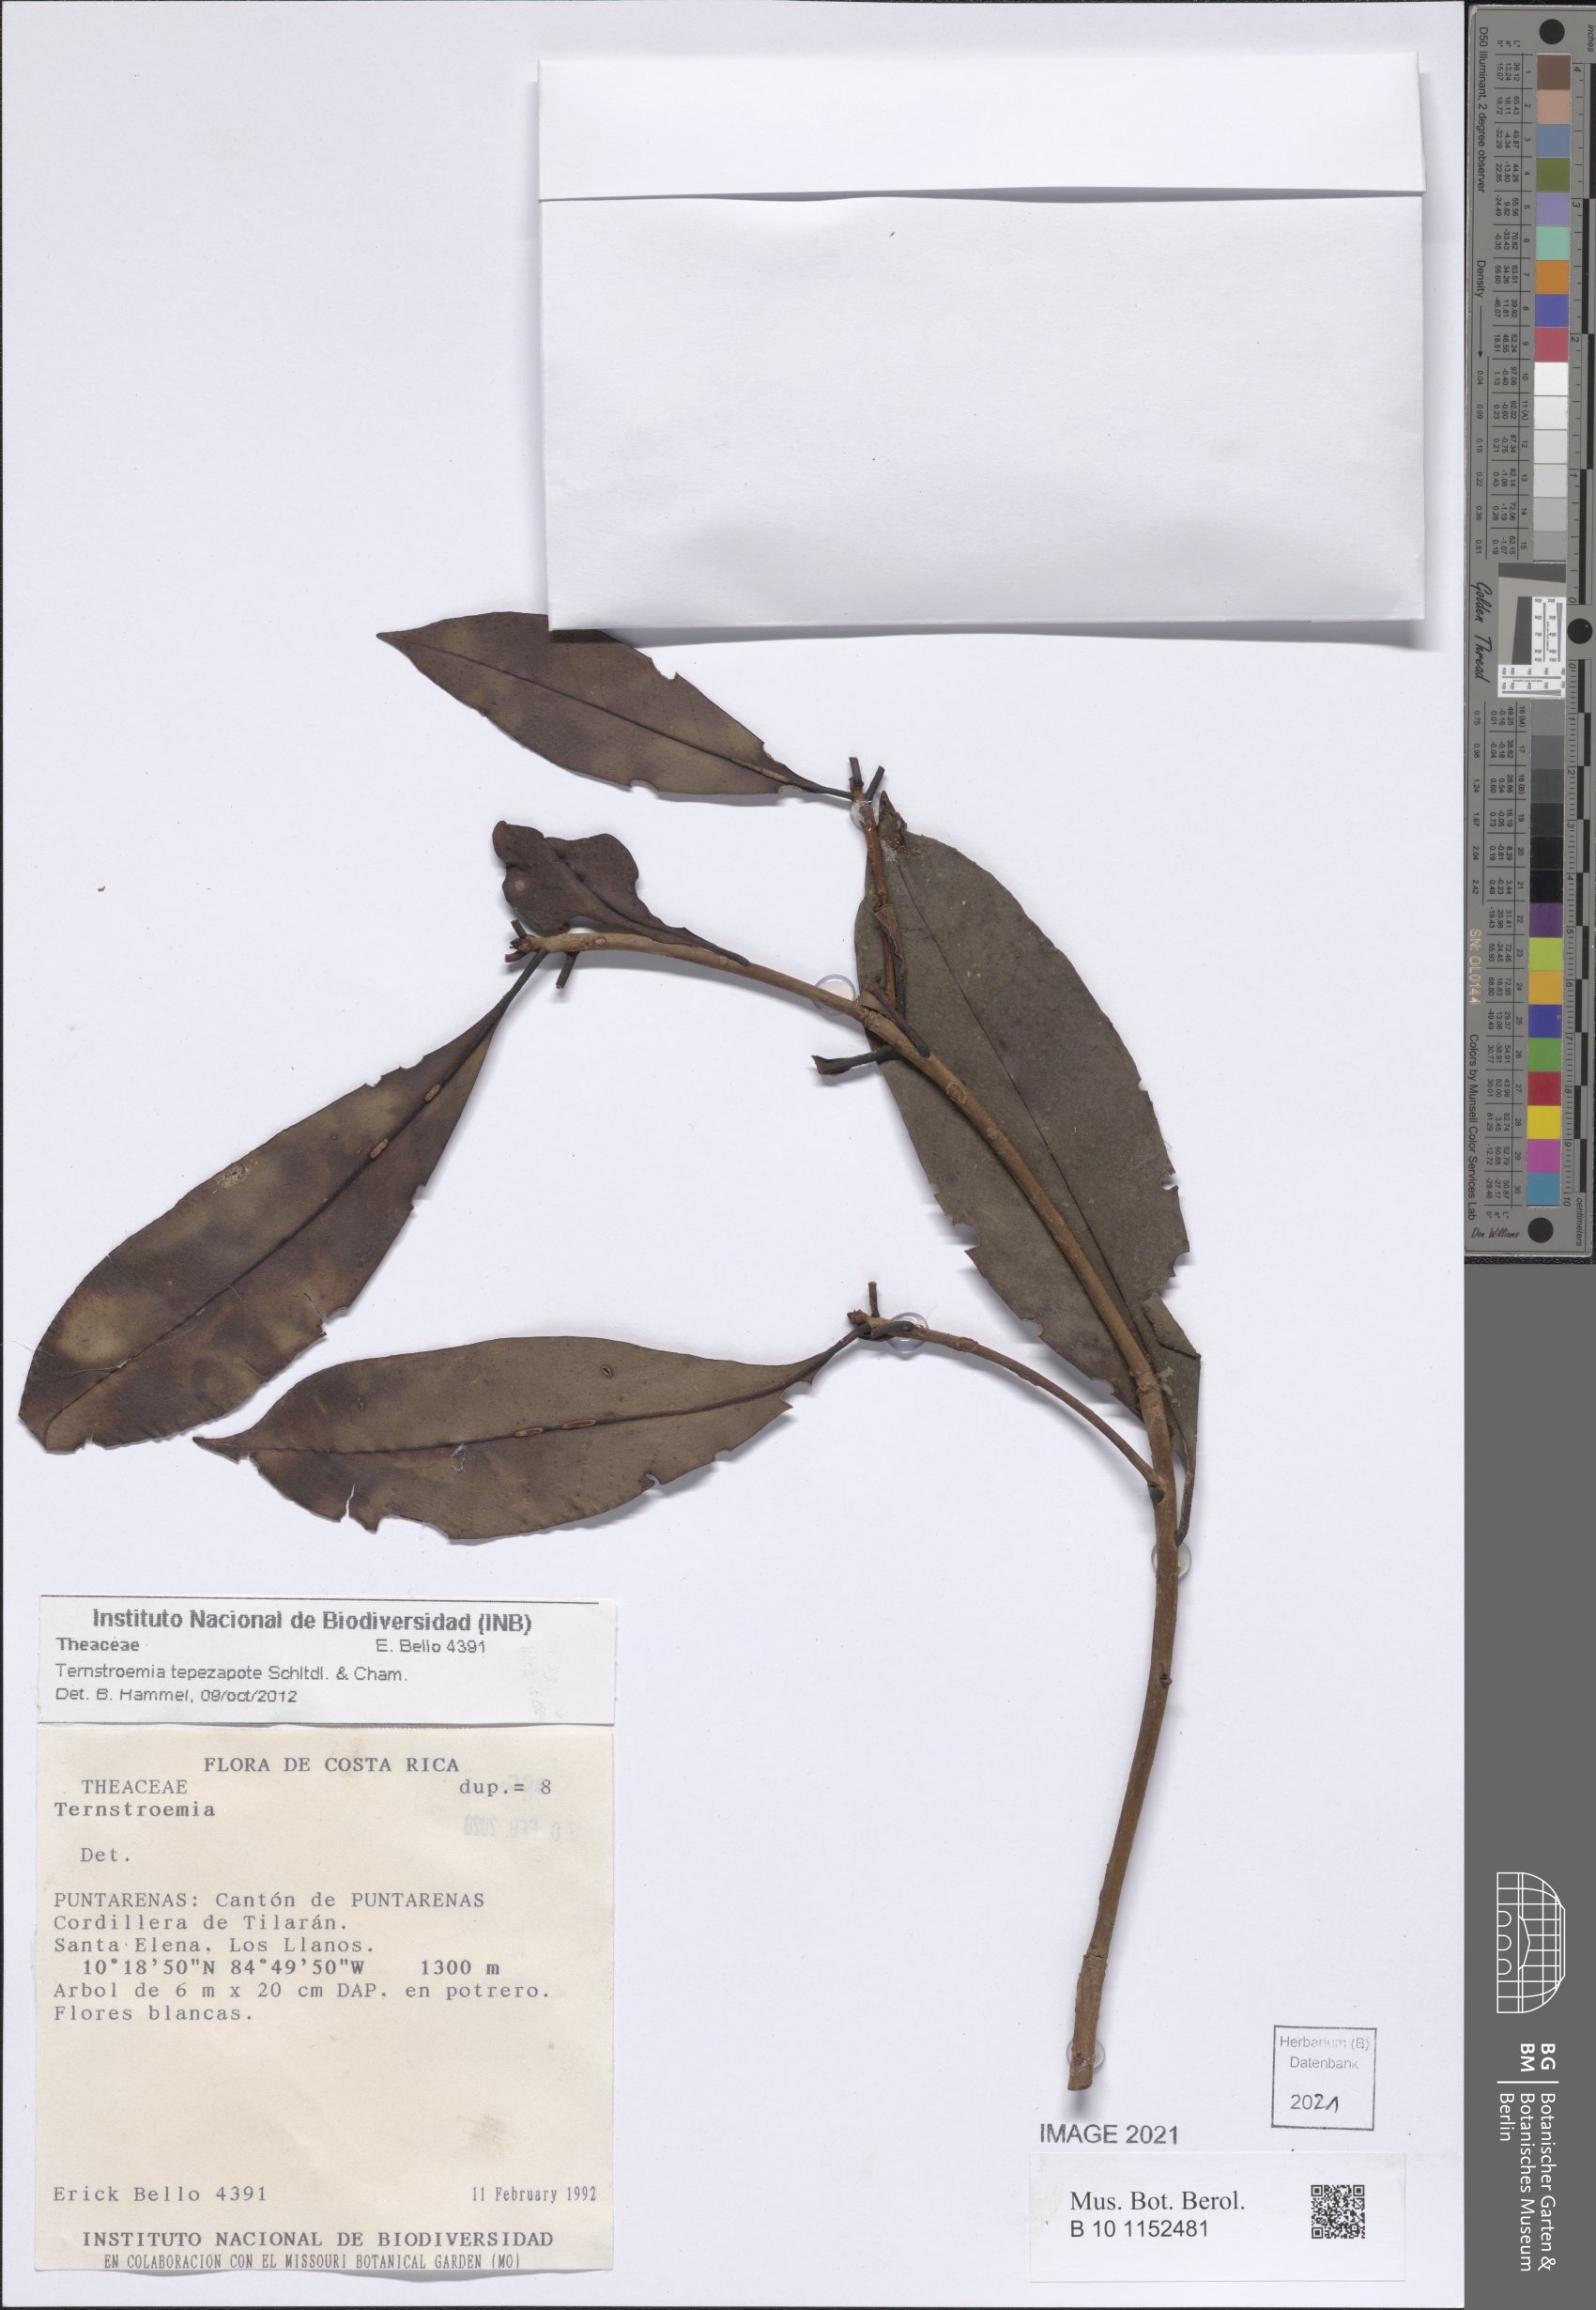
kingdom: Plantae
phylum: Tracheophyta
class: Magnoliopsida
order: Ericales
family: Pentaphylacaceae
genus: Ternstroemia
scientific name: Ternstroemia tepezapote
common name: Copey vera
